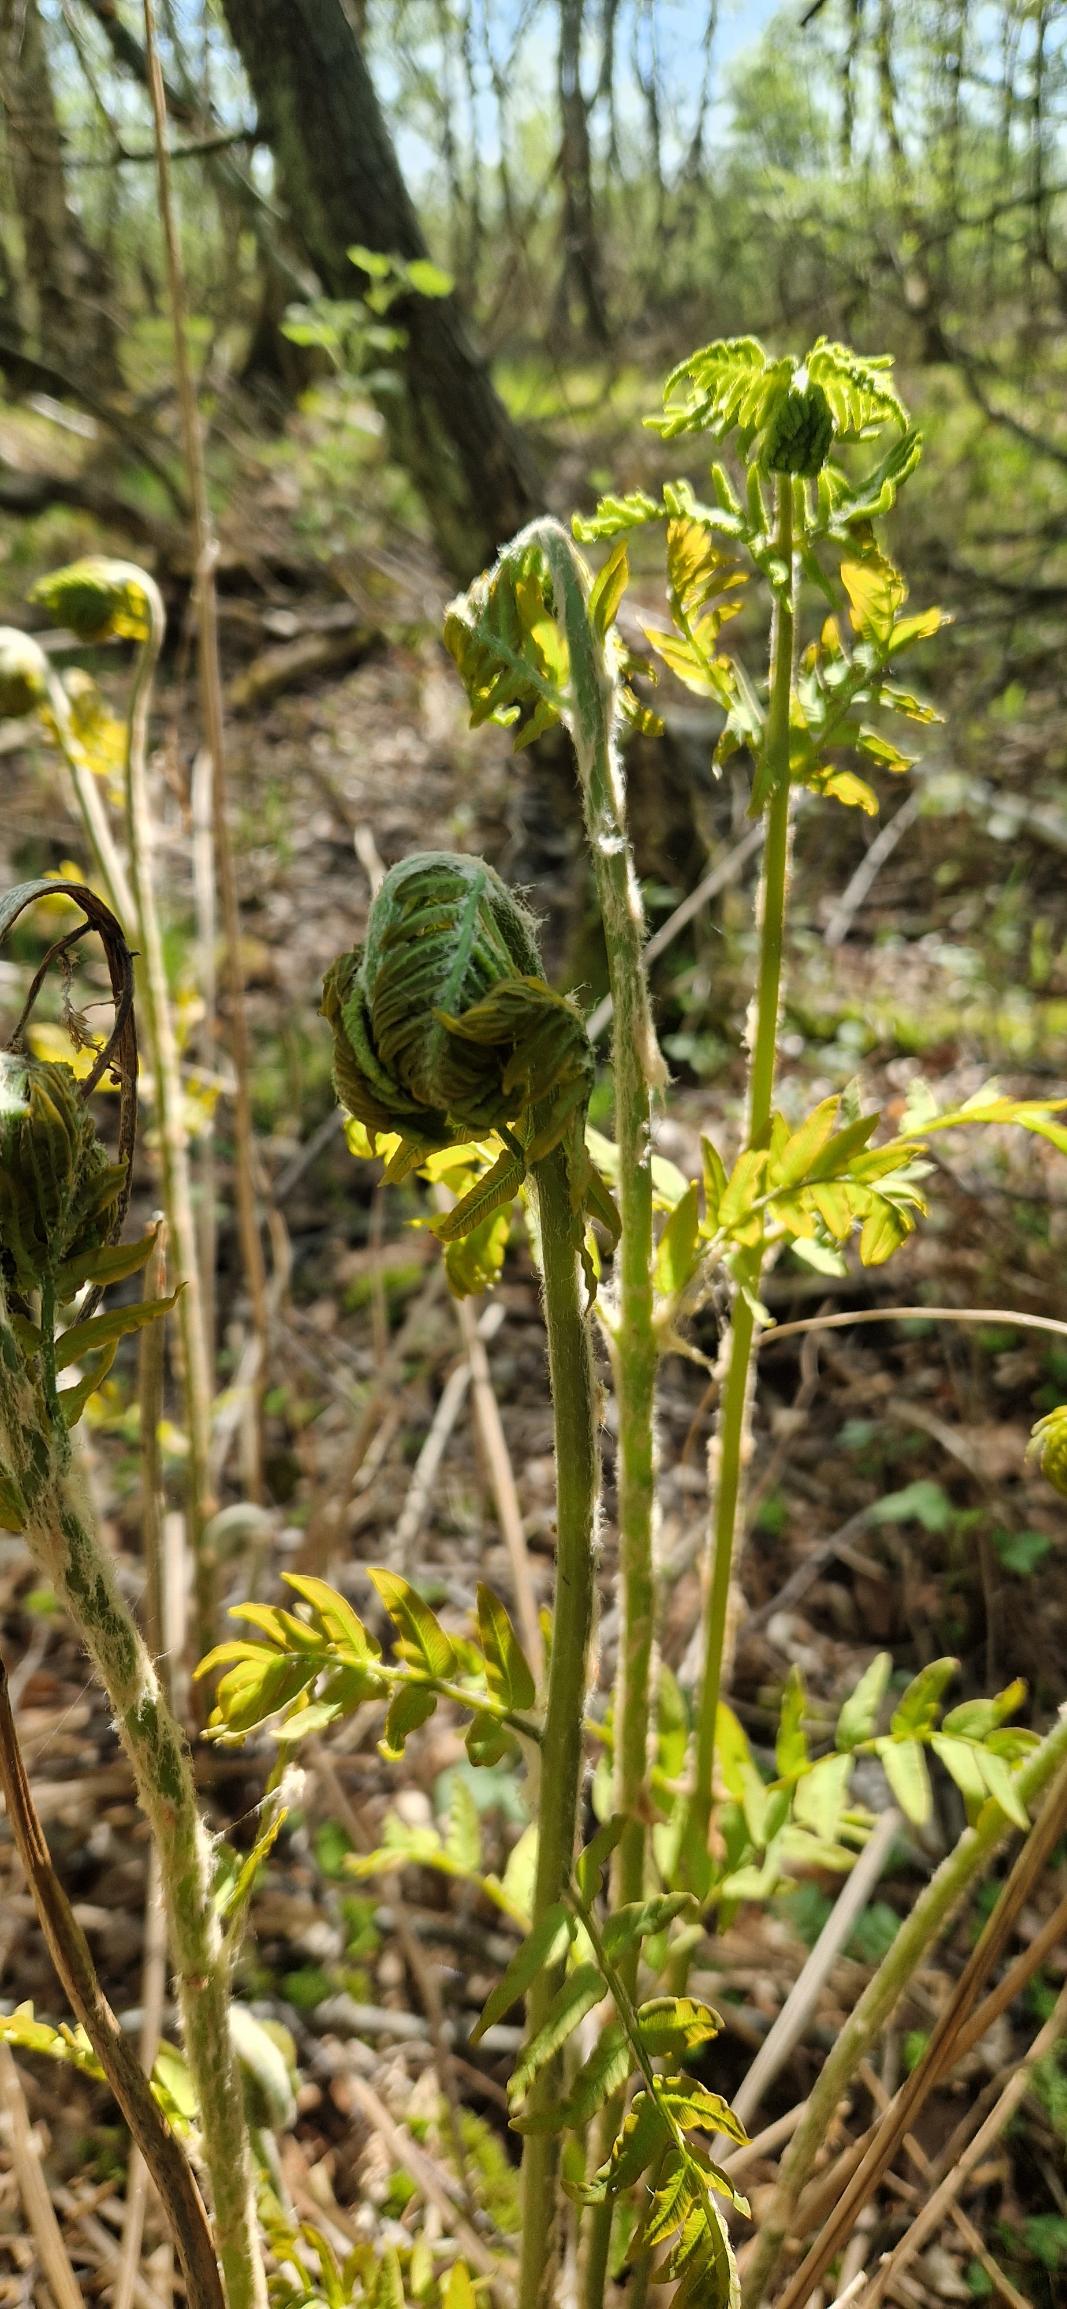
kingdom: Plantae
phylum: Tracheophyta
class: Polypodiopsida
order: Osmundales
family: Osmundaceae
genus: Osmunda
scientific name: Osmunda regalis
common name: Kongebregne
